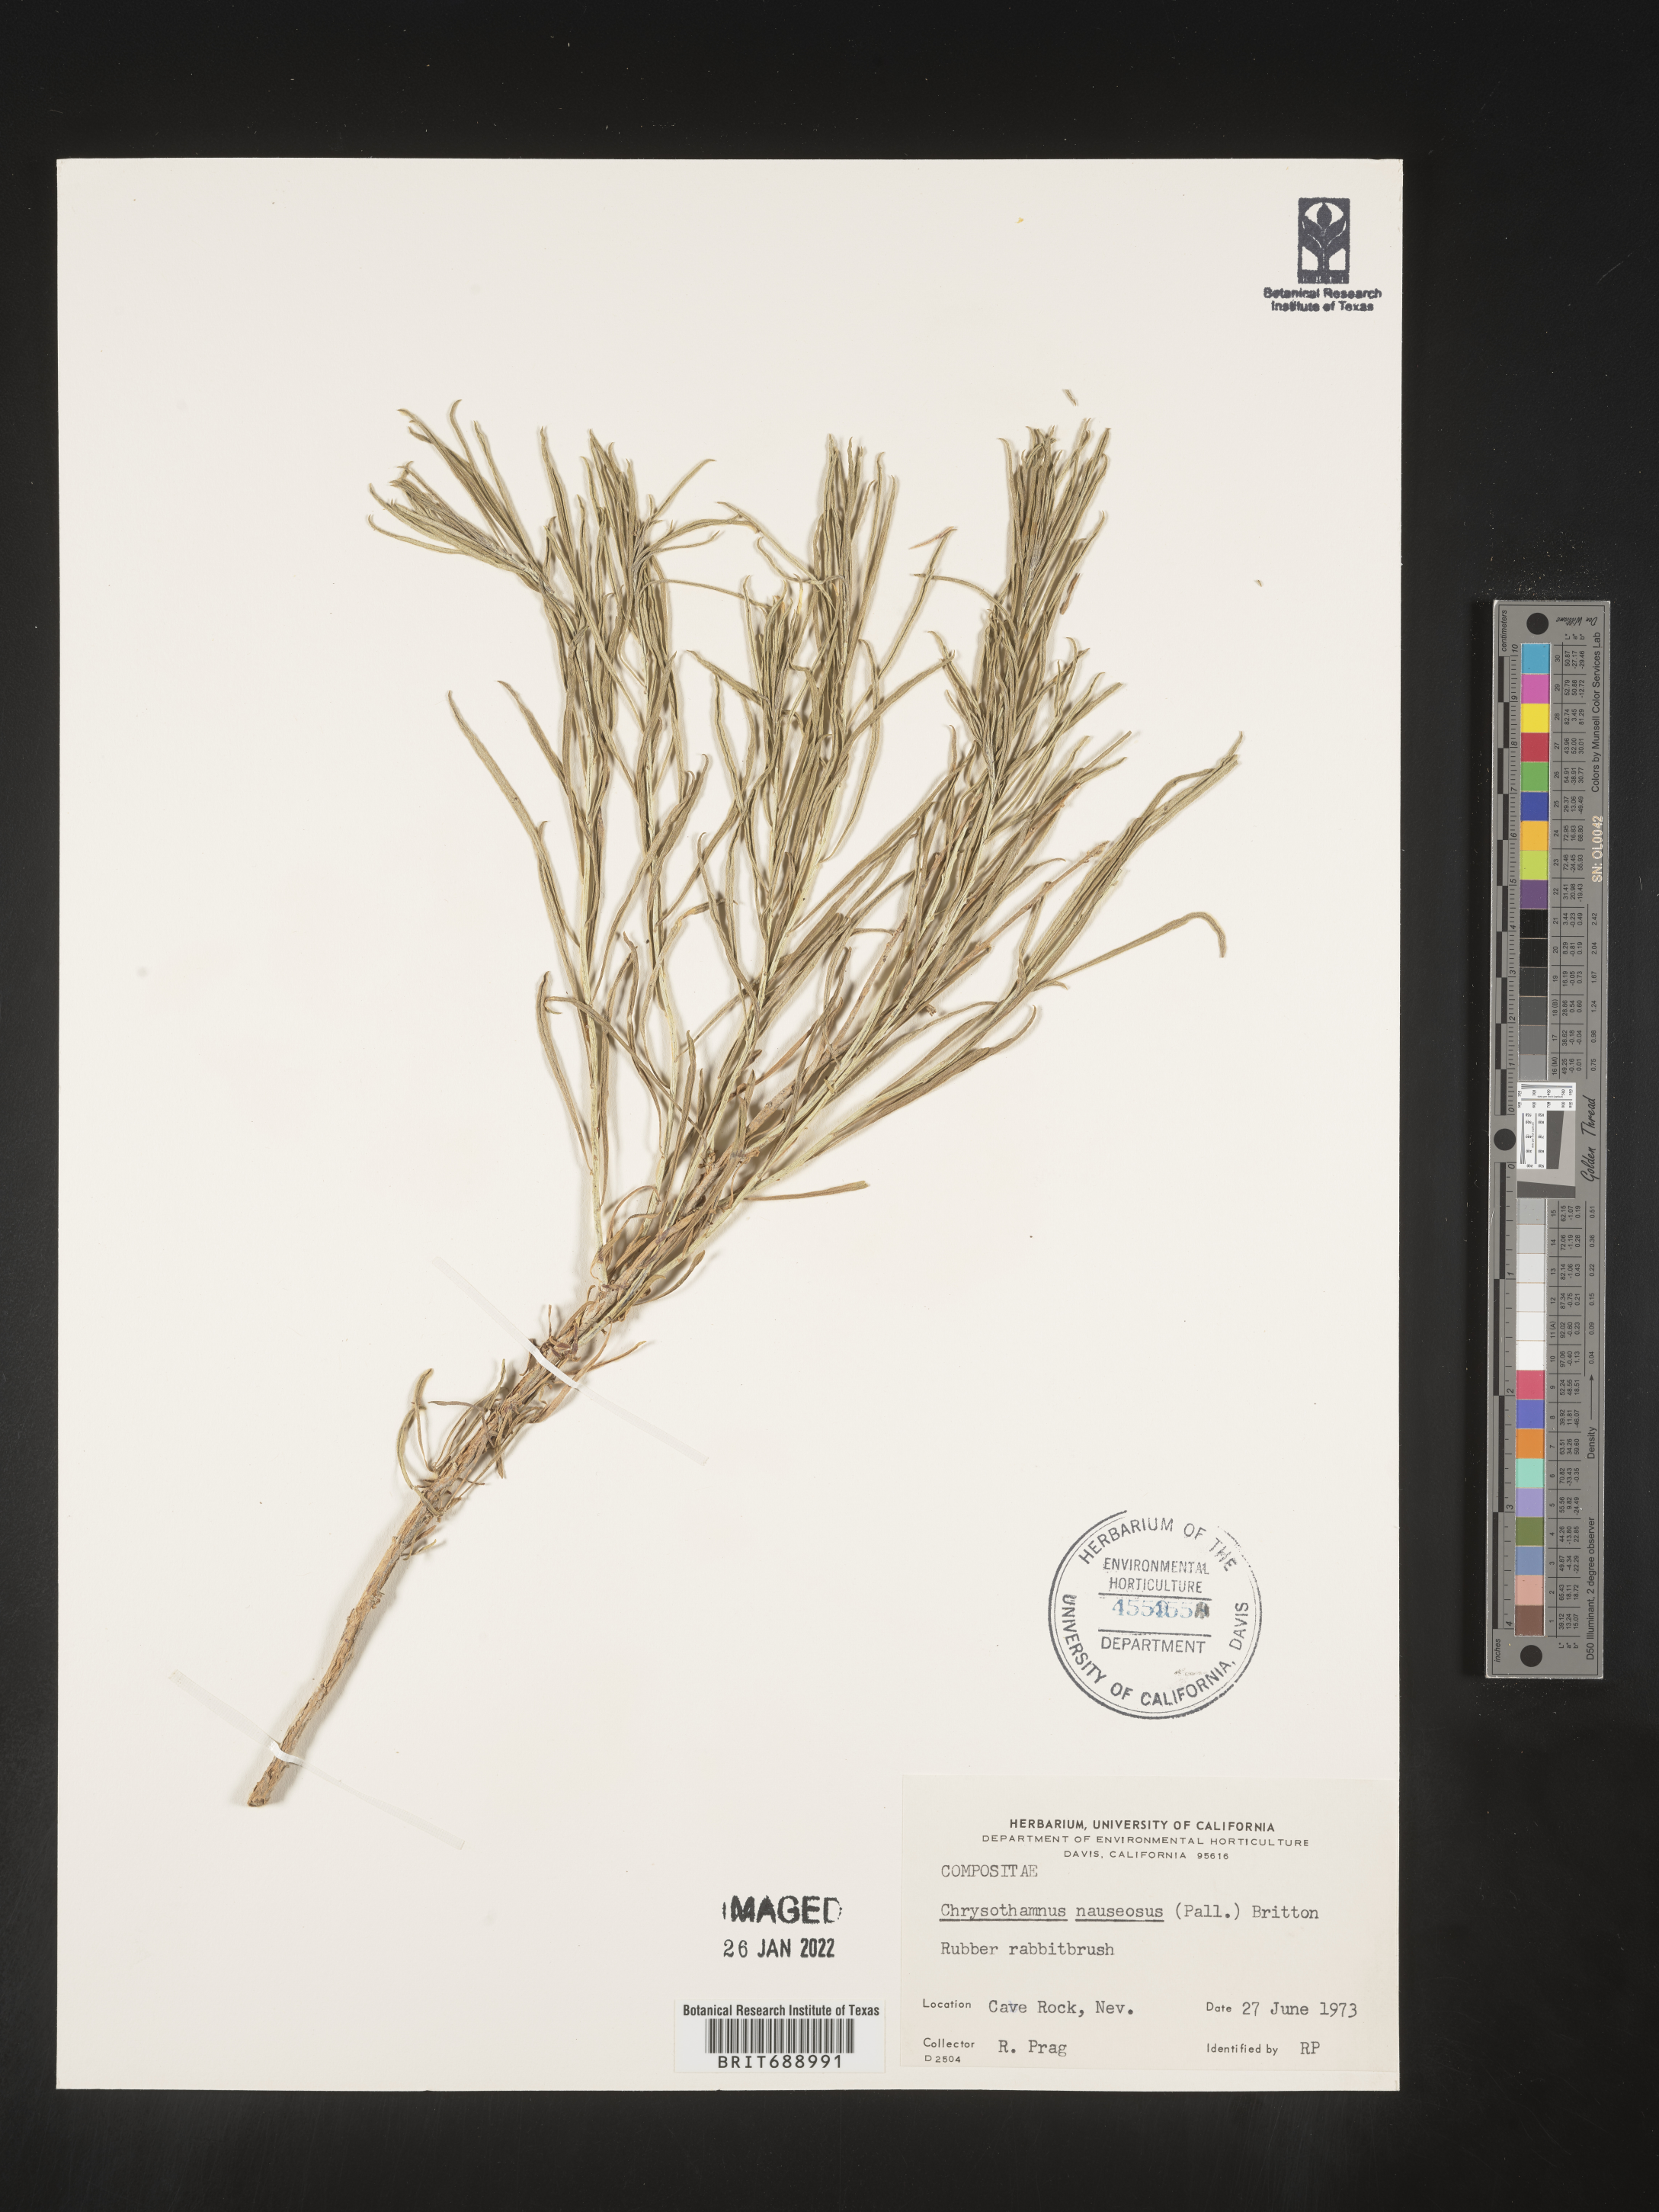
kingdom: Plantae
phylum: Tracheophyta
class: Magnoliopsida
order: Asterales
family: Asteraceae
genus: Ericameria
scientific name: Ericameria nauseosa
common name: Rubber rabbitbrush
